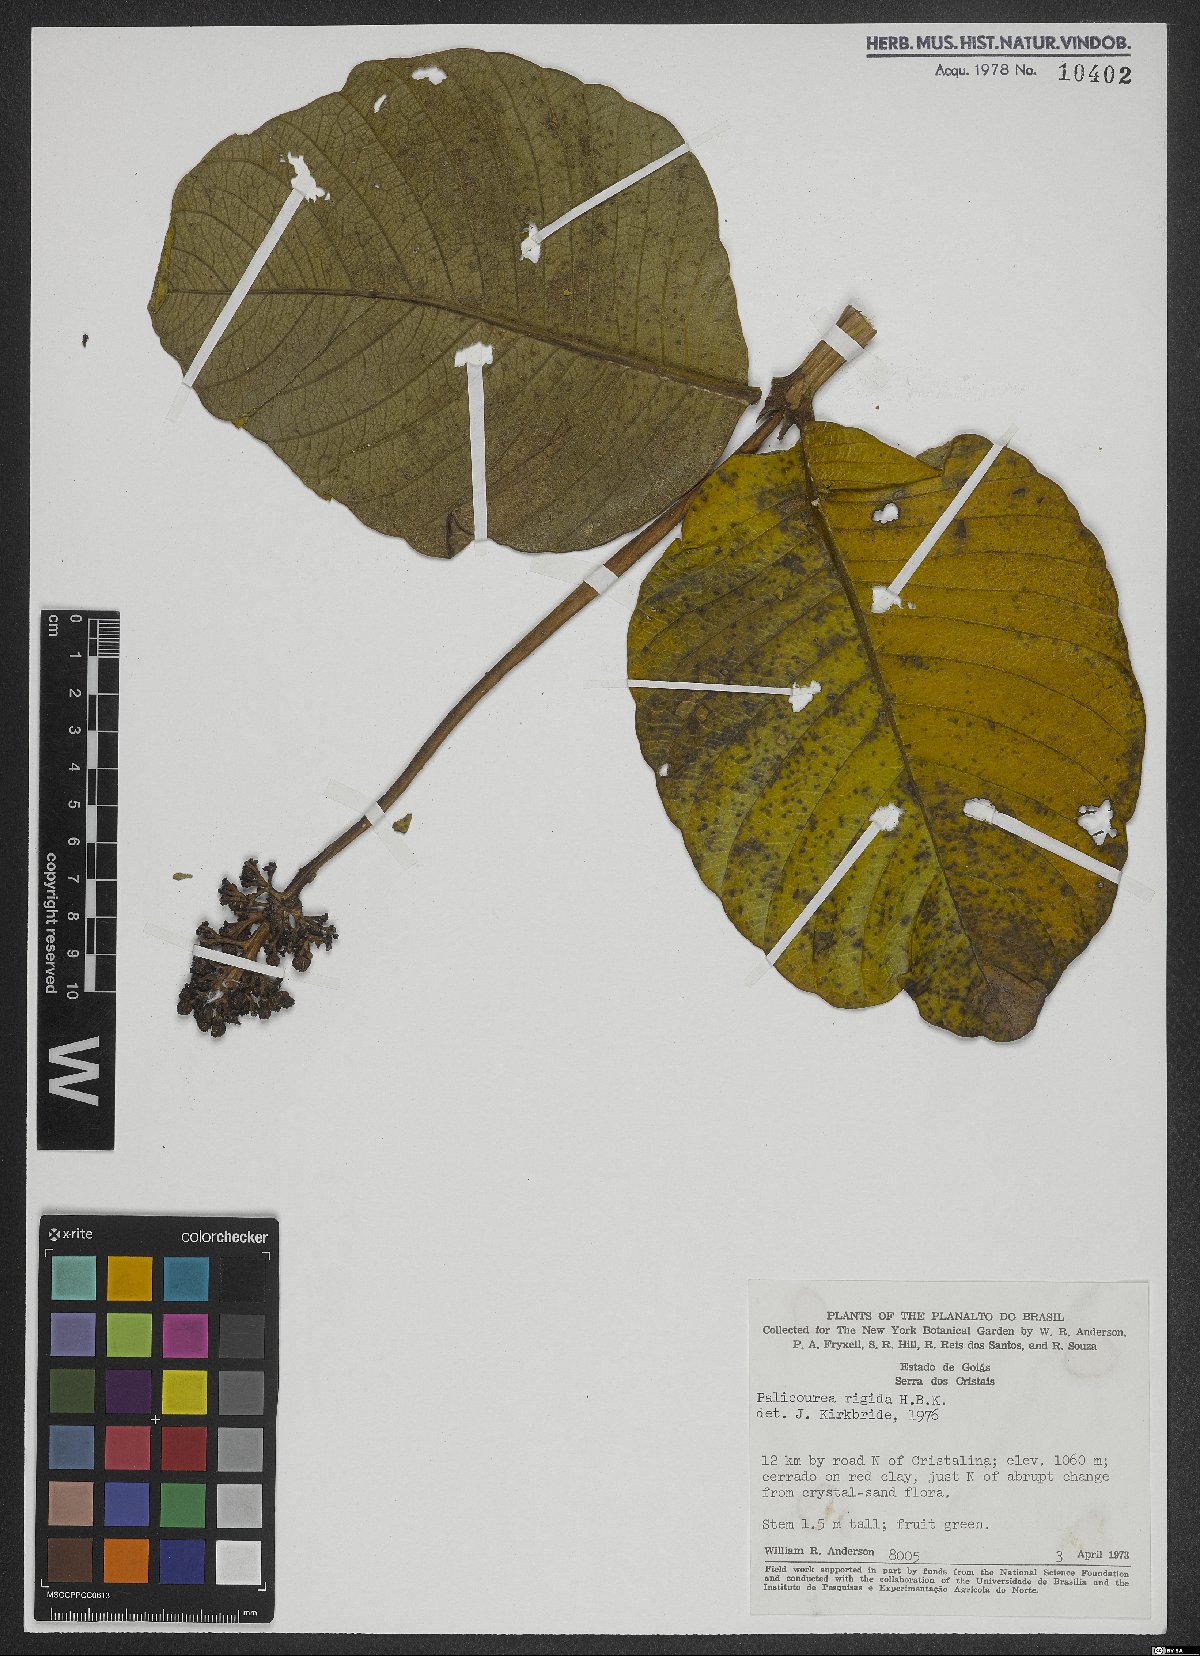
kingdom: Plantae
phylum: Tracheophyta
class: Magnoliopsida
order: Gentianales
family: Rubiaceae
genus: Palicourea
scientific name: Palicourea rigida
